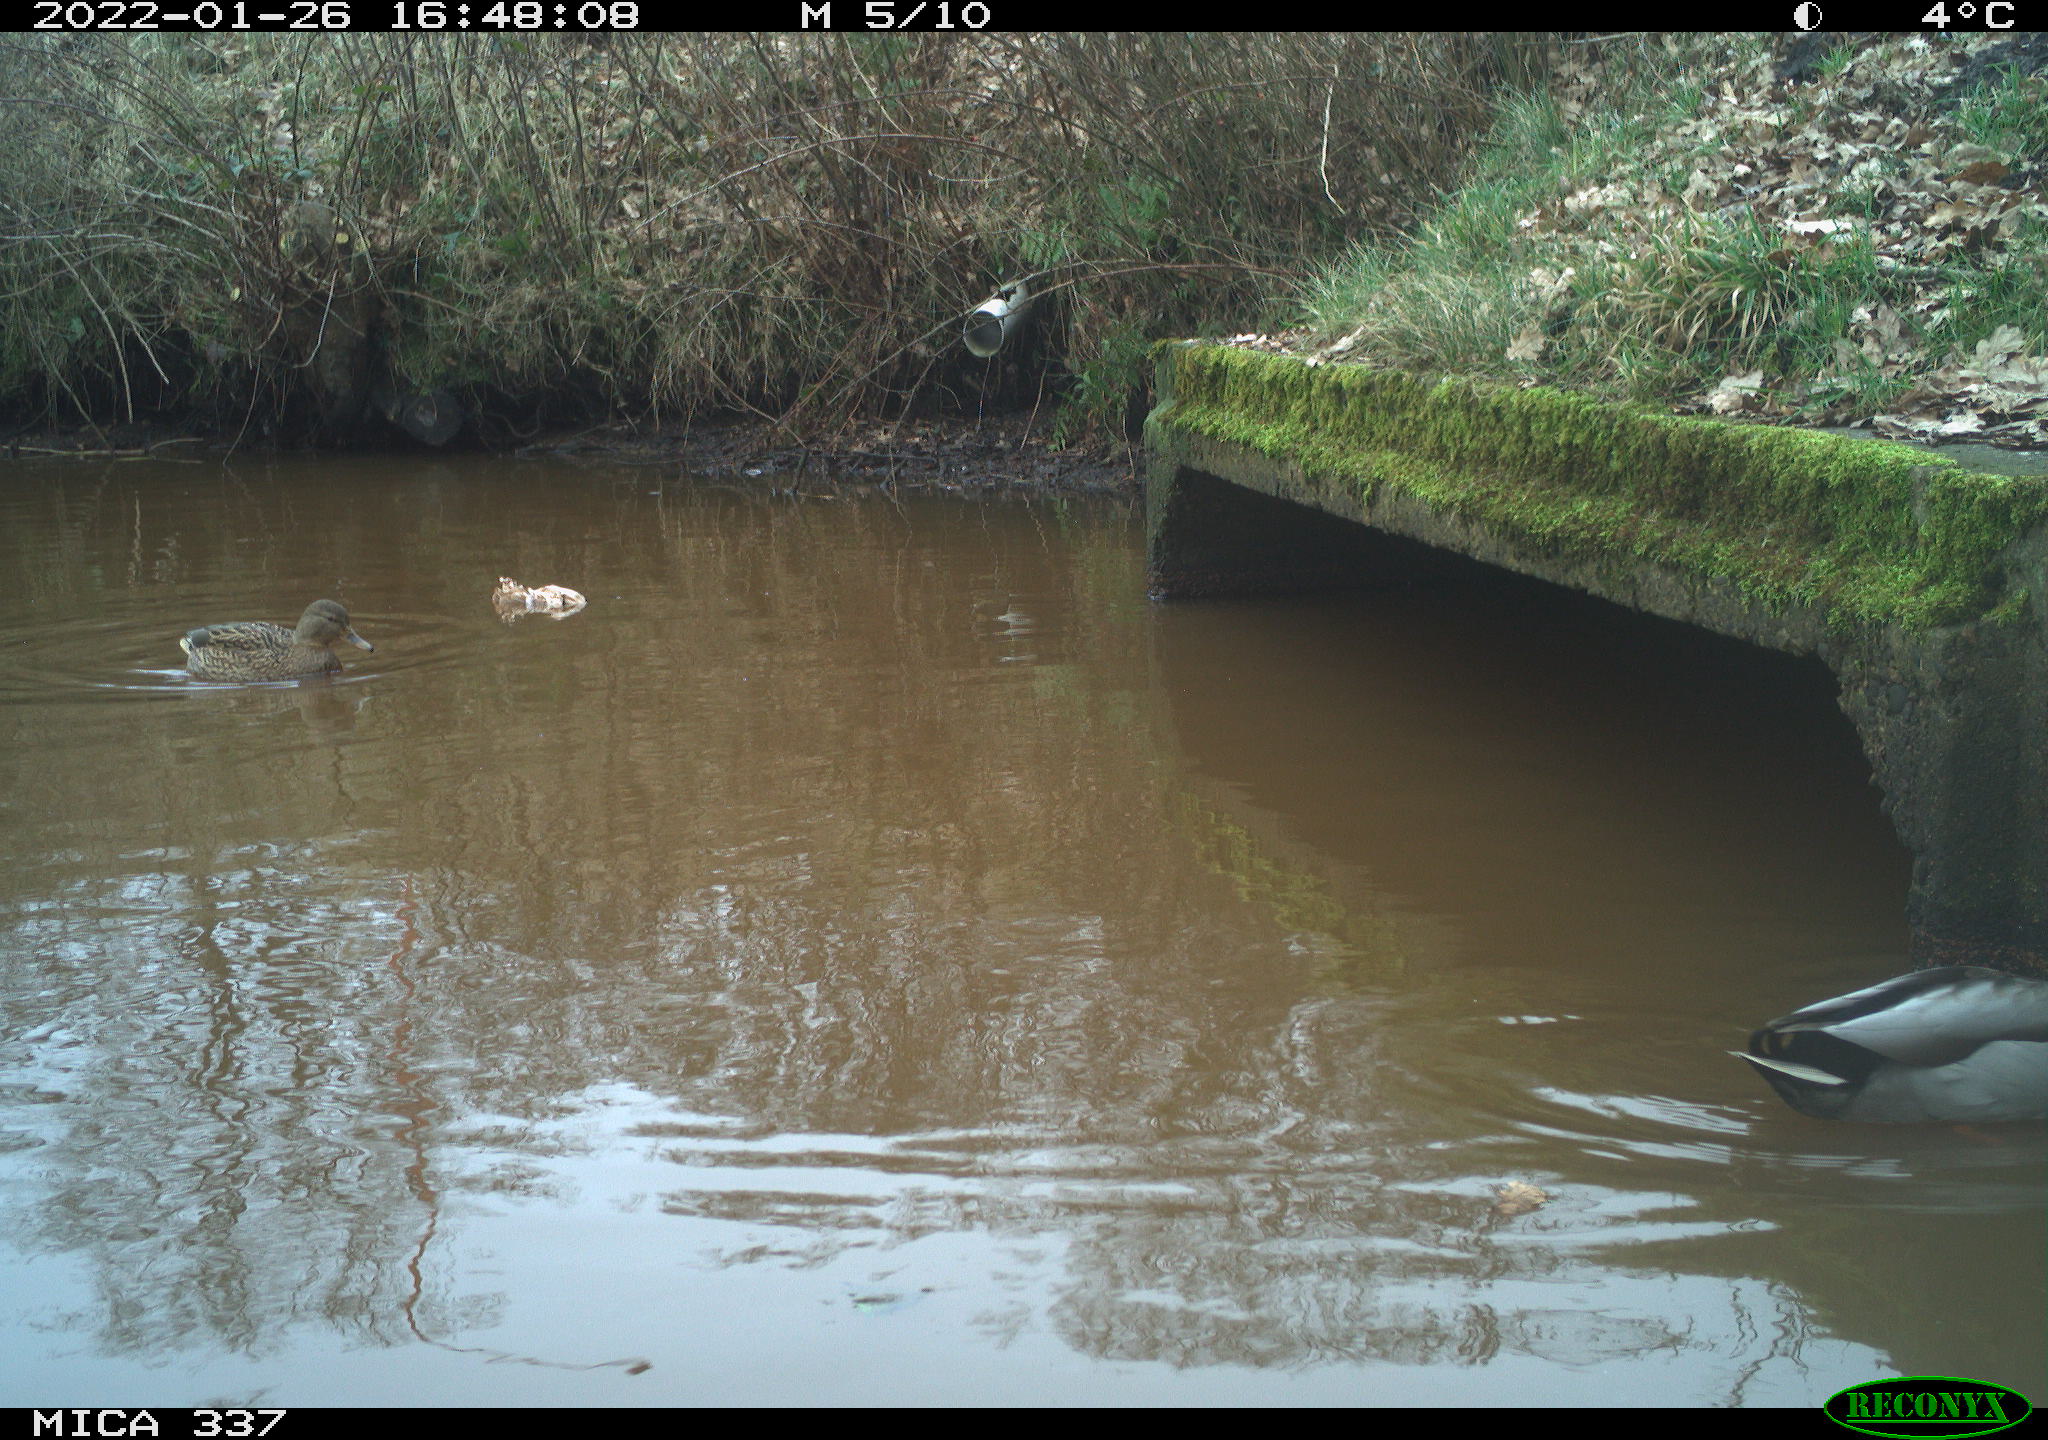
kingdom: Animalia
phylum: Chordata
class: Aves
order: Anseriformes
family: Anatidae
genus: Anas
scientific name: Anas platyrhynchos
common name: Mallard
